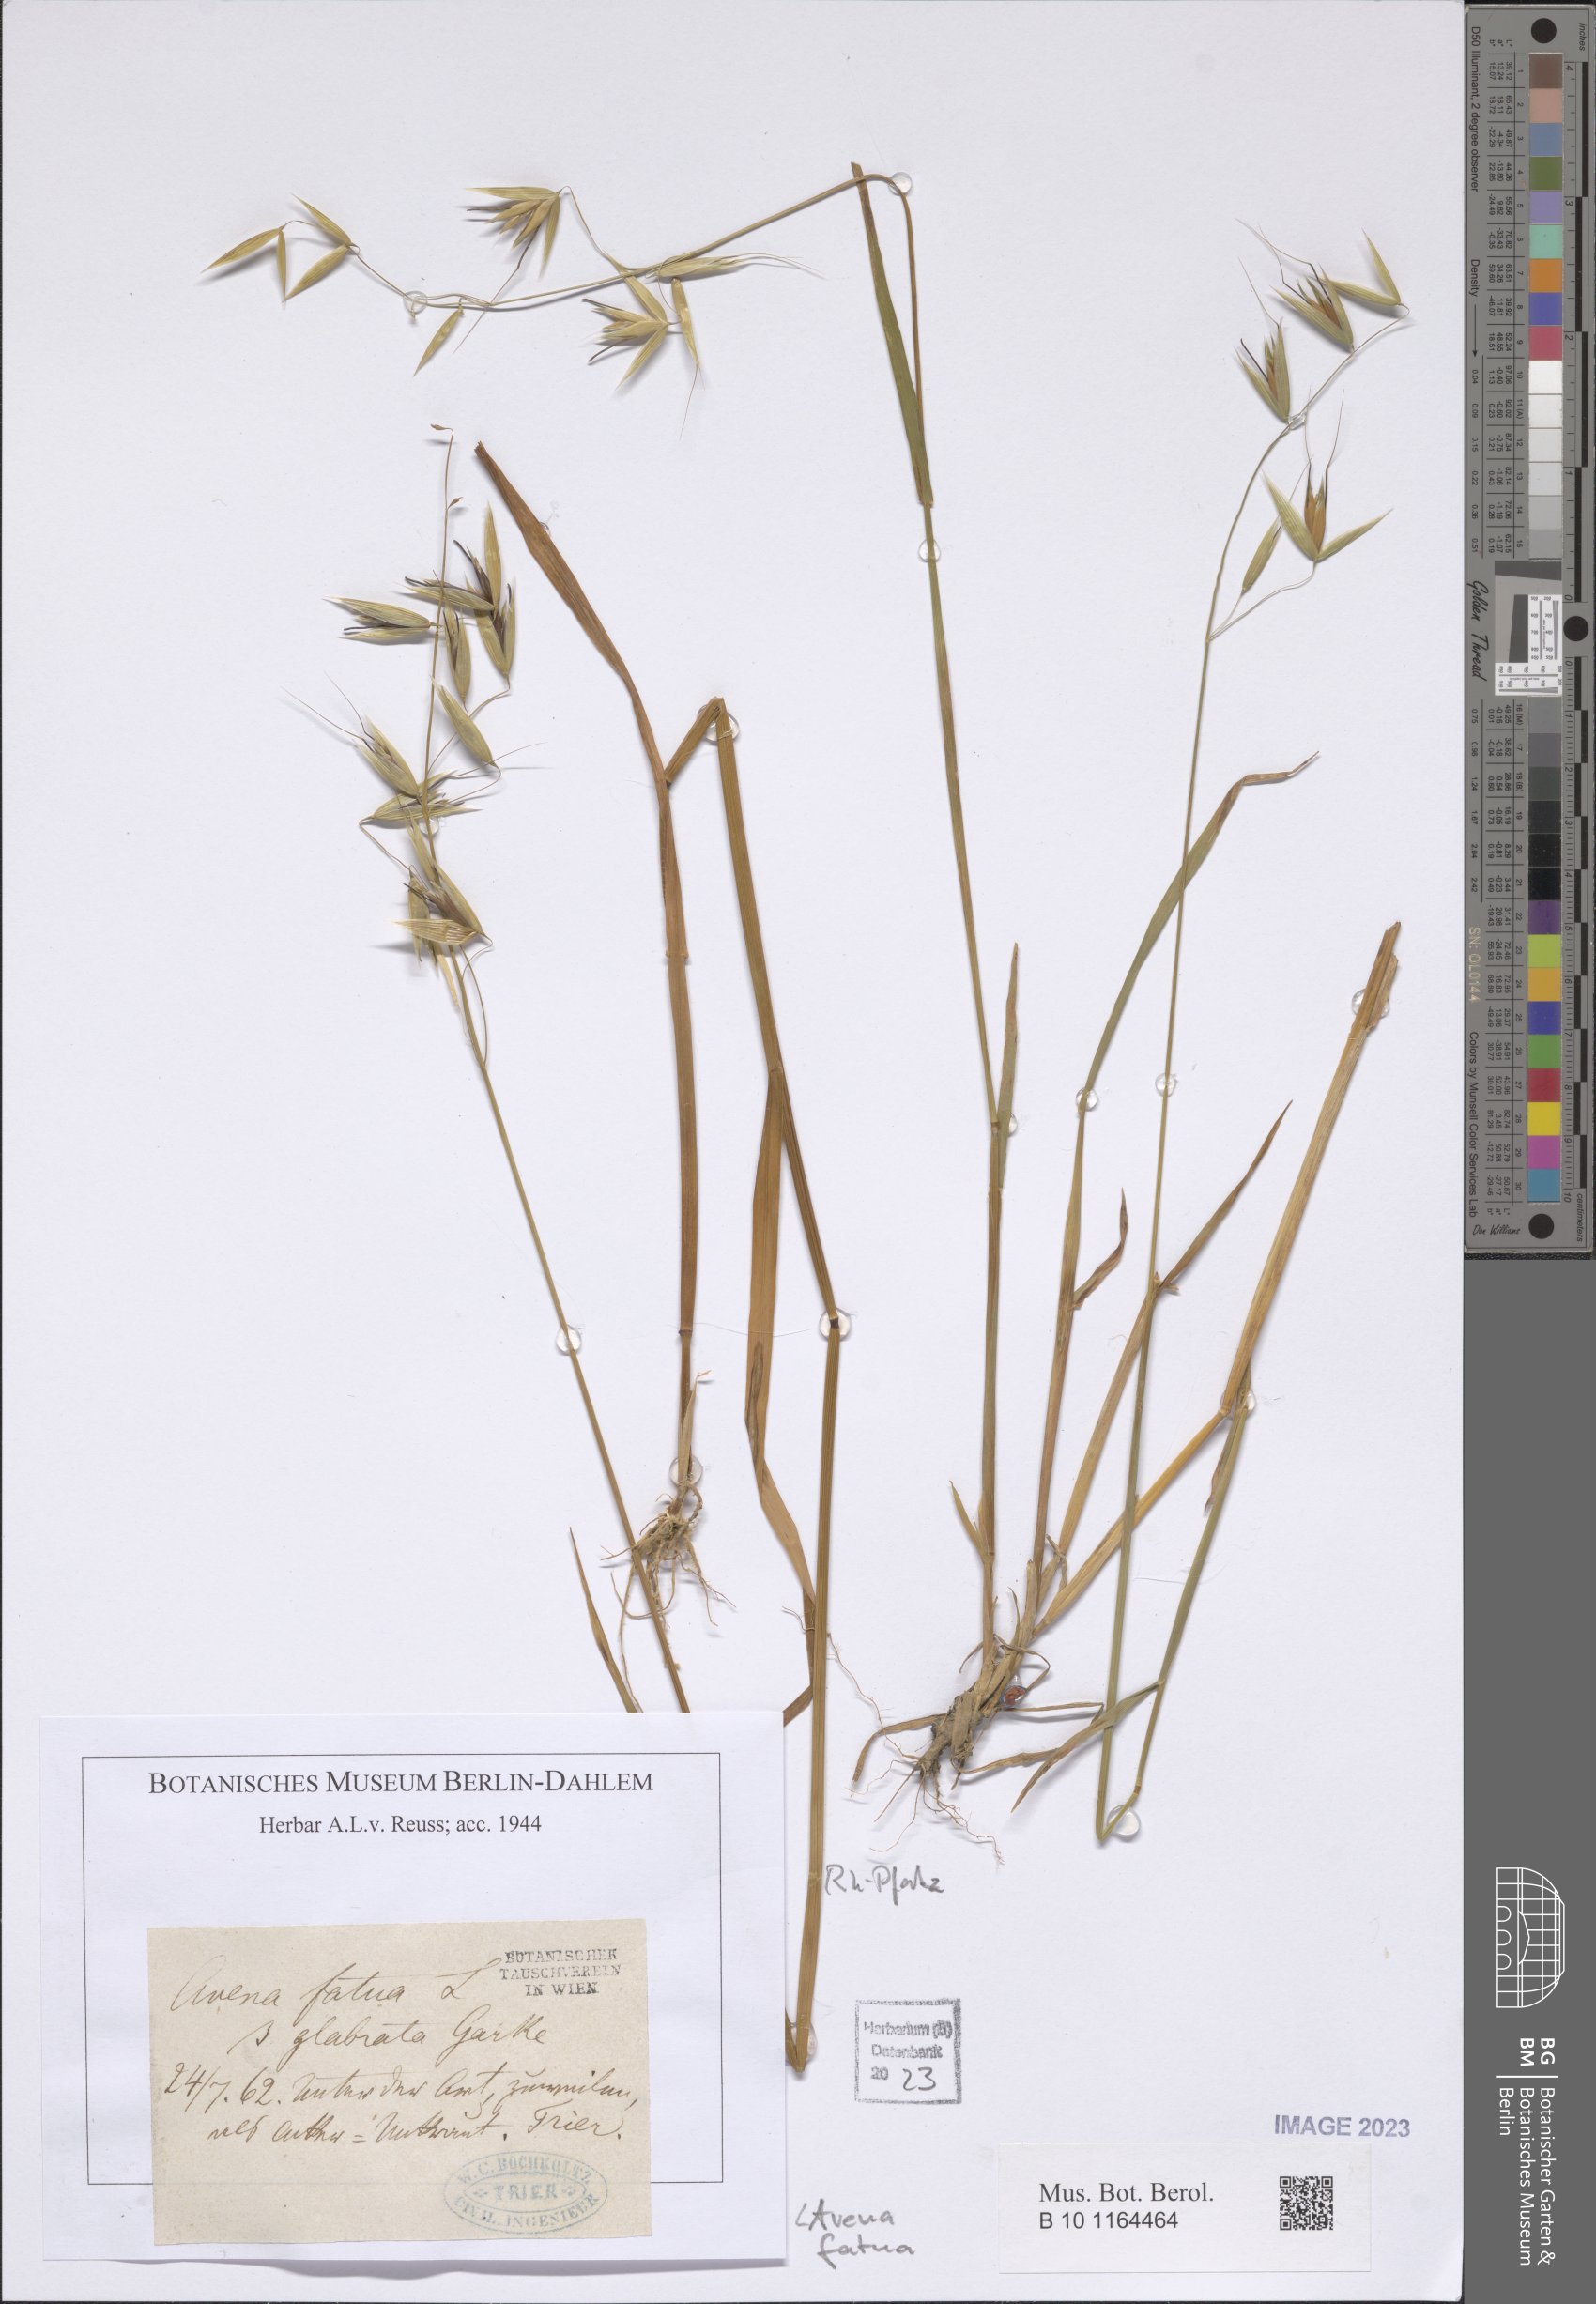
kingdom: Plantae
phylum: Tracheophyta
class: Liliopsida
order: Poales
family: Poaceae
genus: Avena
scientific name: Avena fatua
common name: Wild oat
